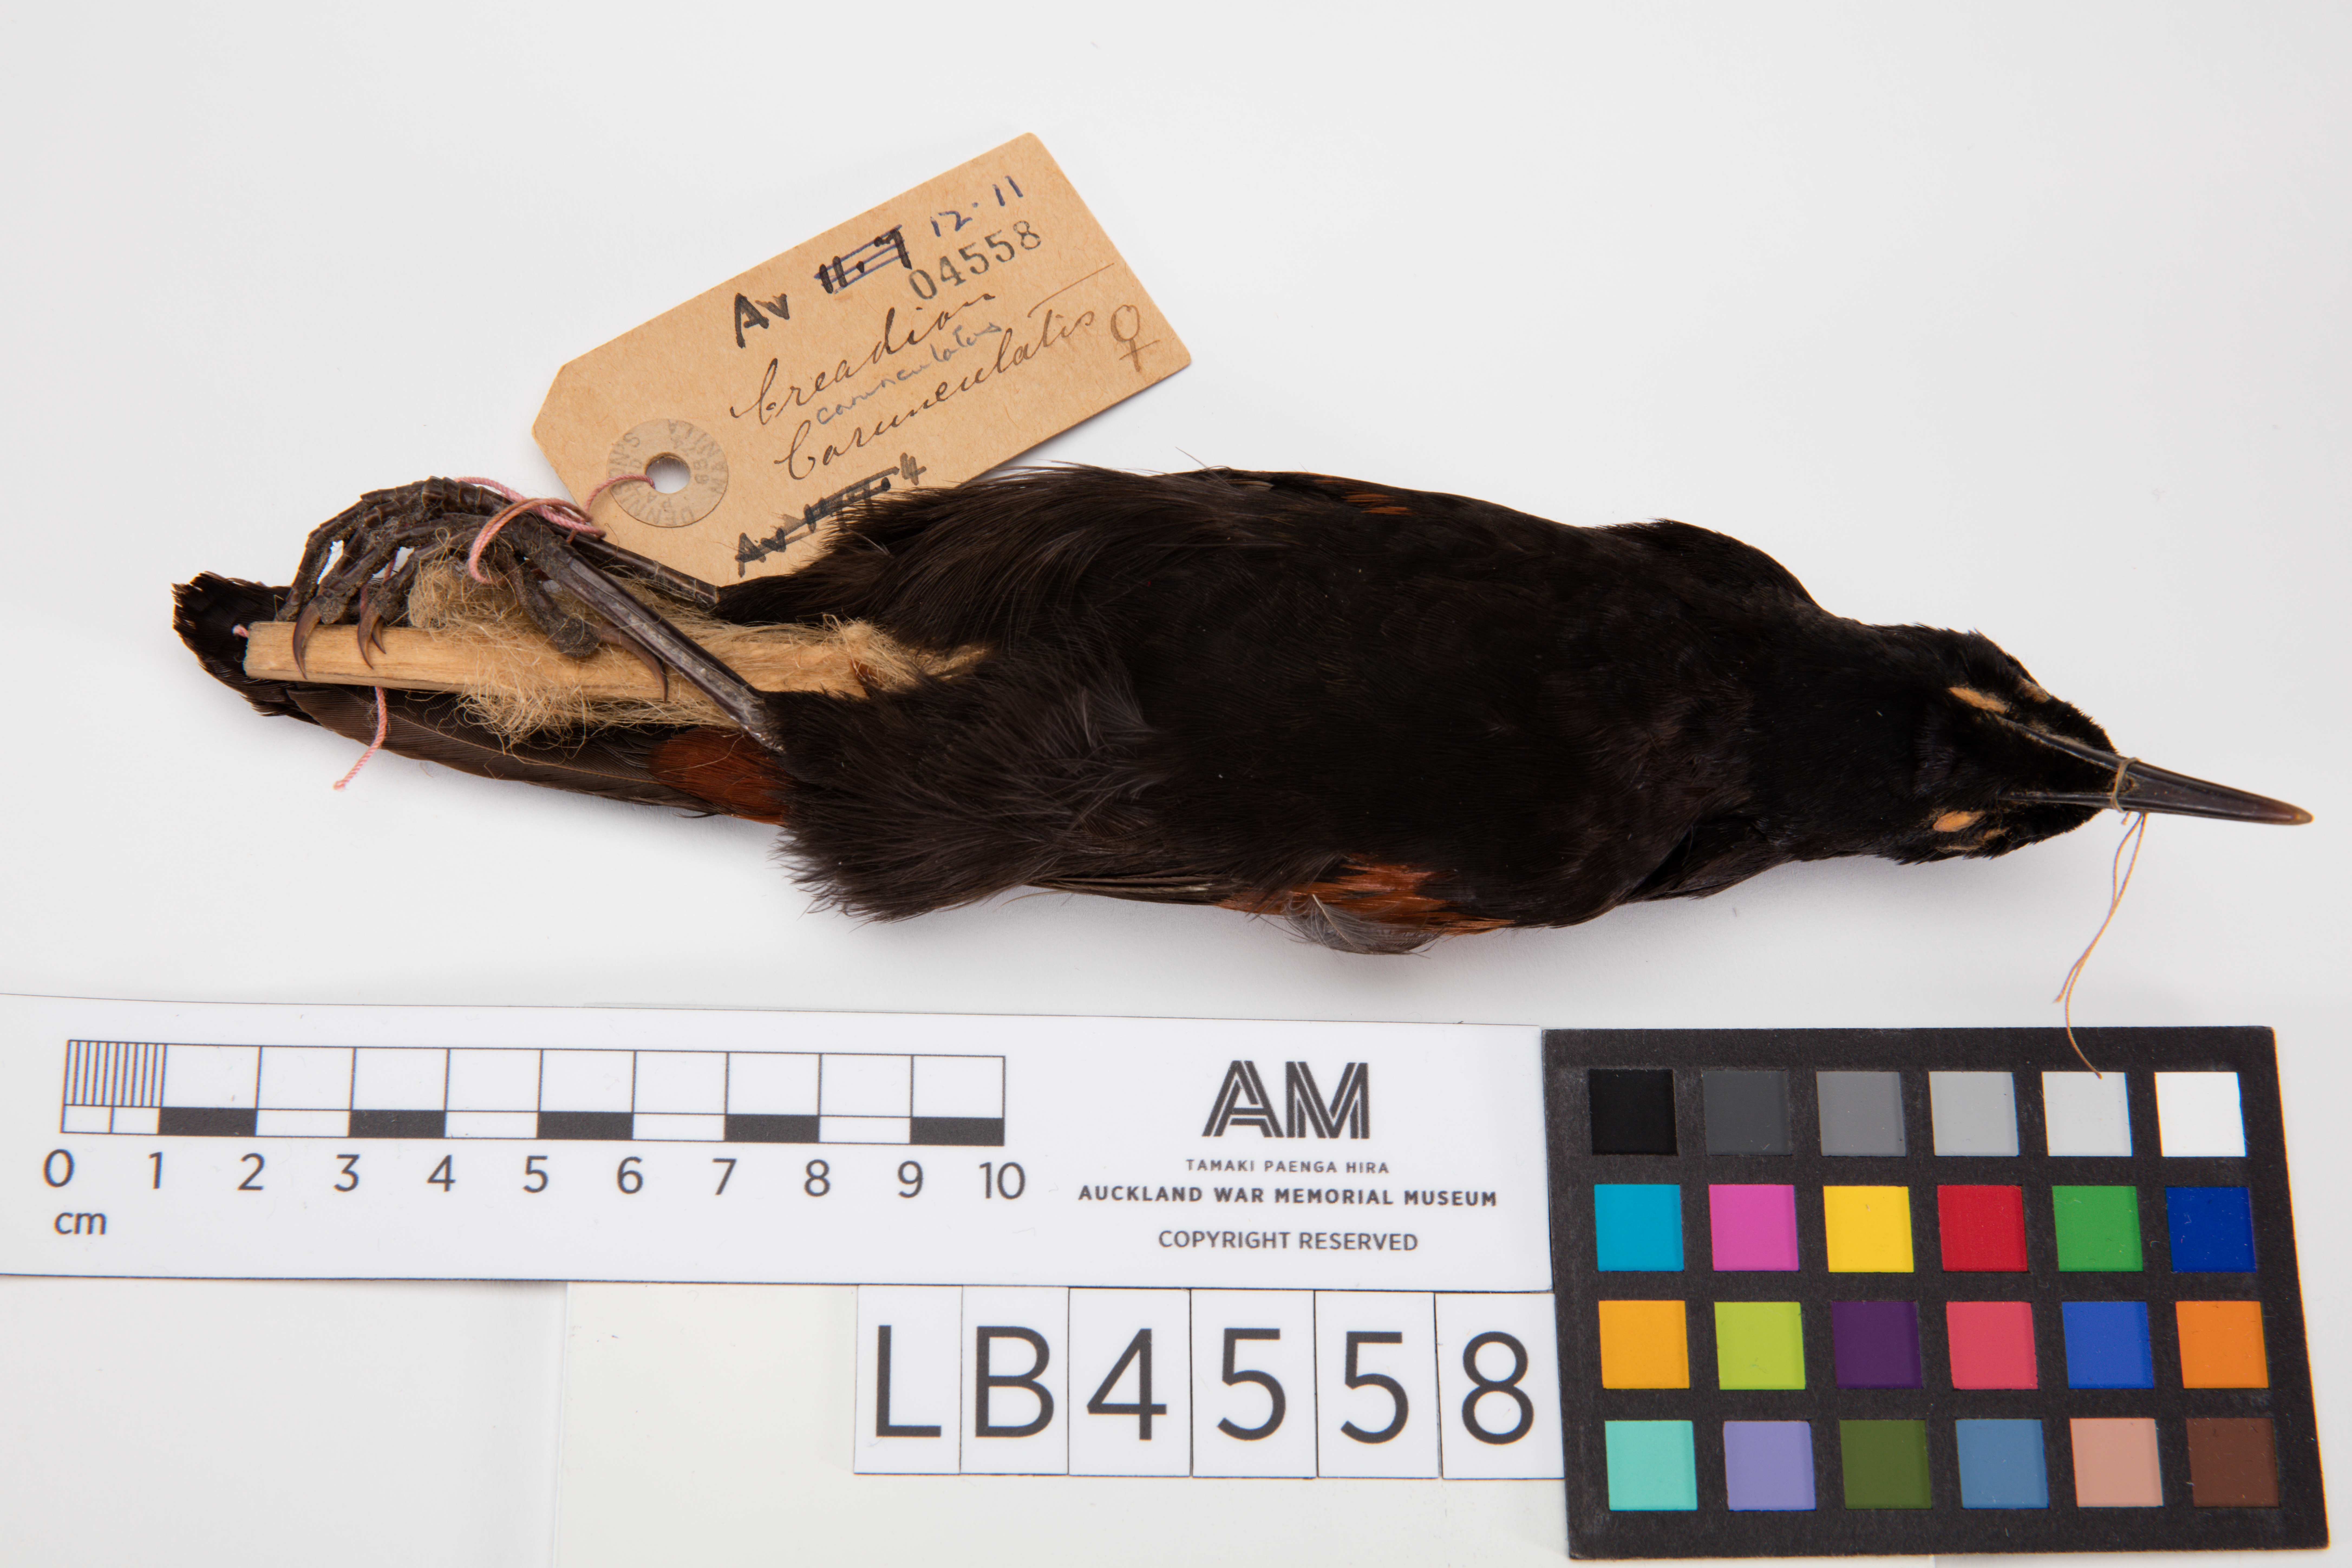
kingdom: Animalia
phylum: Chordata
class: Aves
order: Passeriformes
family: Callaeatidae
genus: Philesturnus
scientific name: Philesturnus carunculatus
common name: South island saddleback
